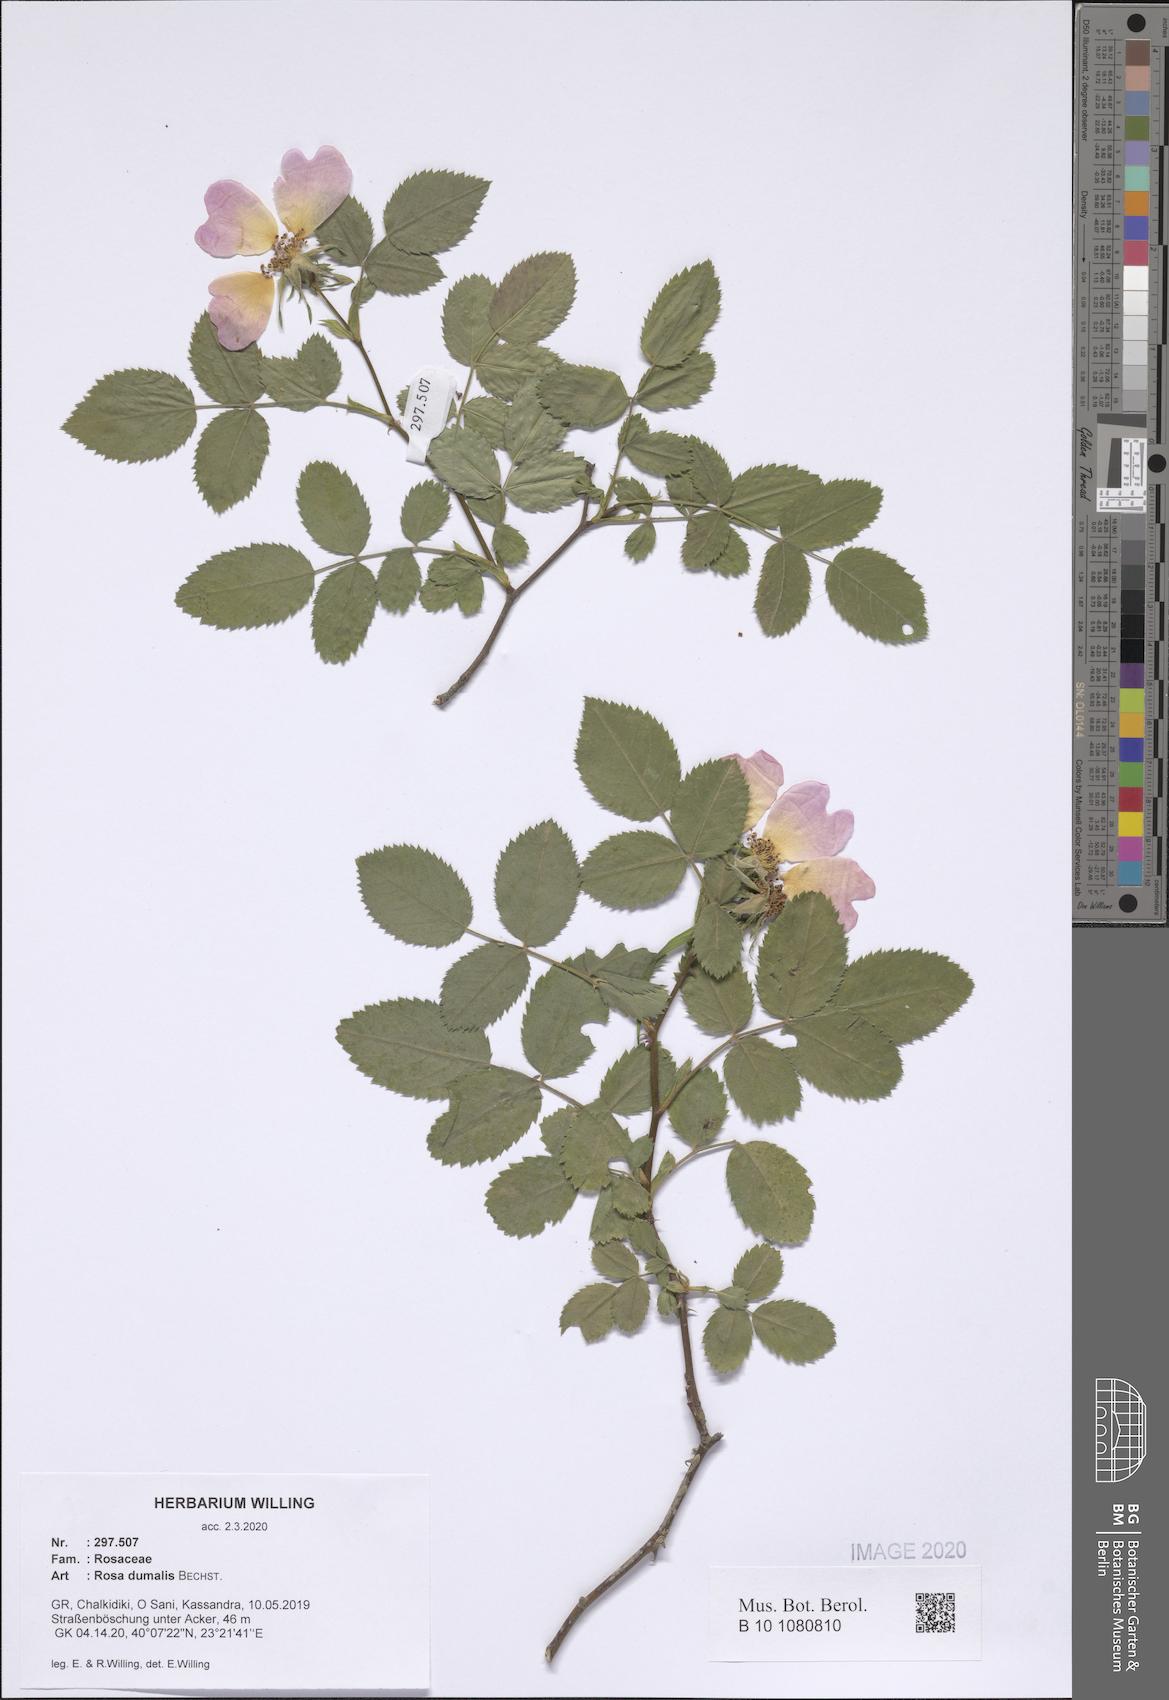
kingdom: Plantae
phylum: Tracheophyta
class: Magnoliopsida
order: Rosales
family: Rosaceae
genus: Rosa
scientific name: Rosa dumalis
